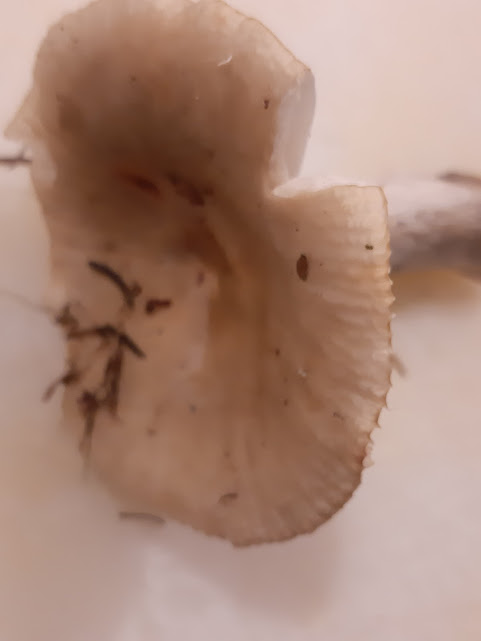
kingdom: Fungi
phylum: Basidiomycota
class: Agaricomycetes
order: Russulales
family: Russulaceae
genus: Russula
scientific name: Russula
